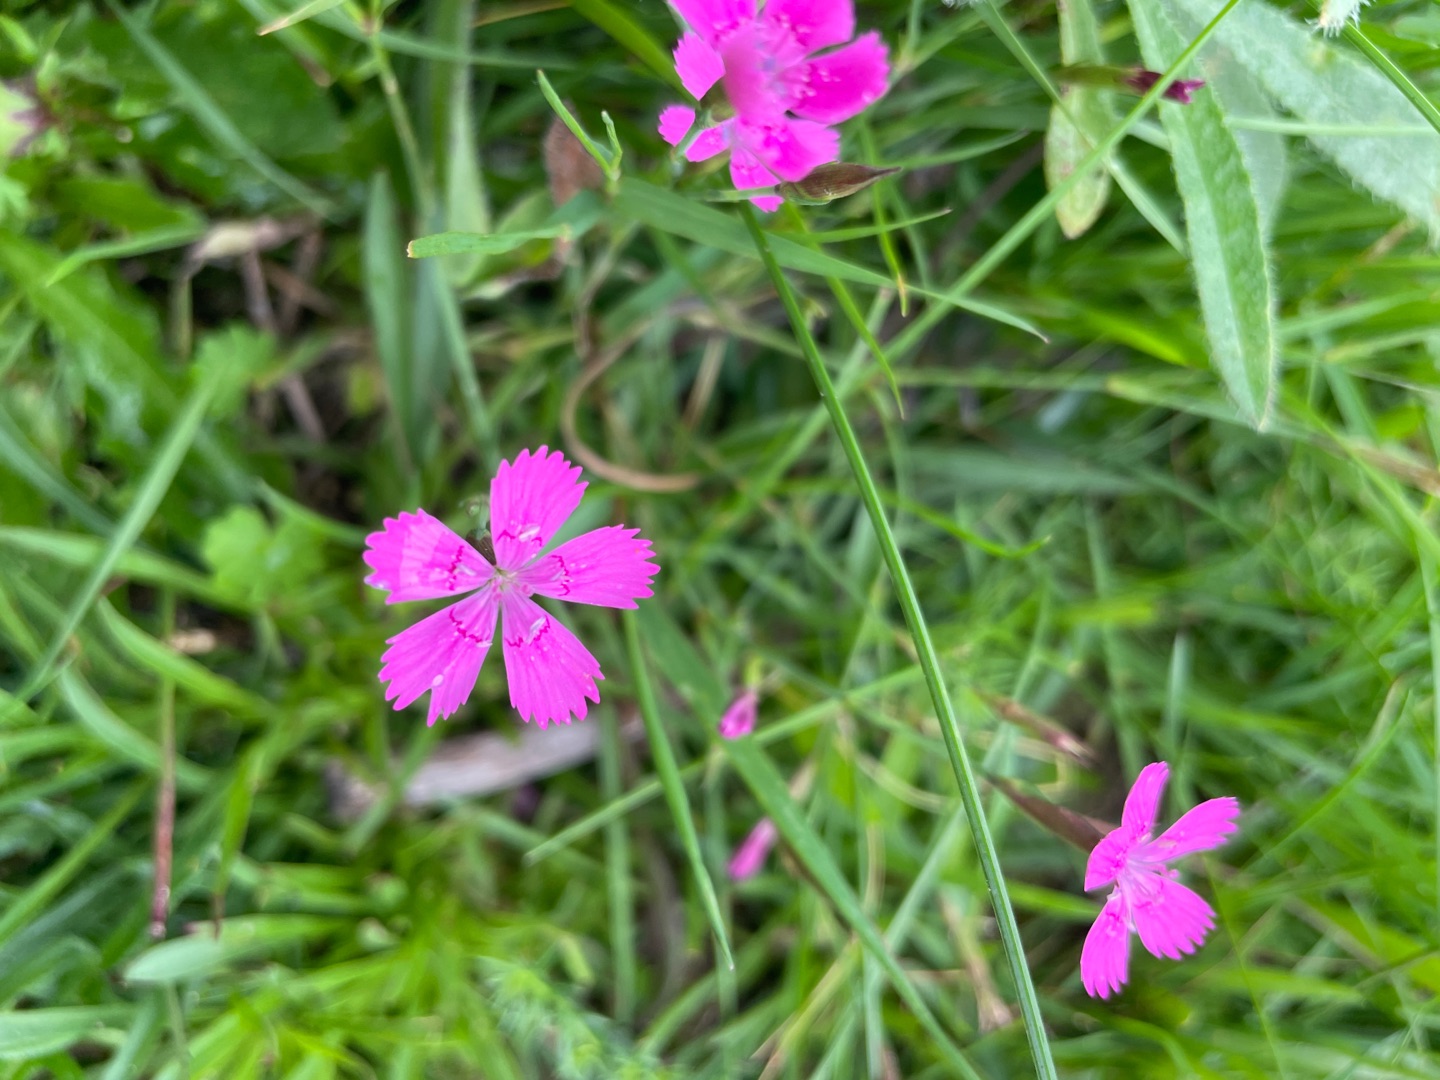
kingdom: Plantae
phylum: Tracheophyta
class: Magnoliopsida
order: Caryophyllales
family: Caryophyllaceae
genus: Dianthus
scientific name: Dianthus deltoides
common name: Bakke-nellike
